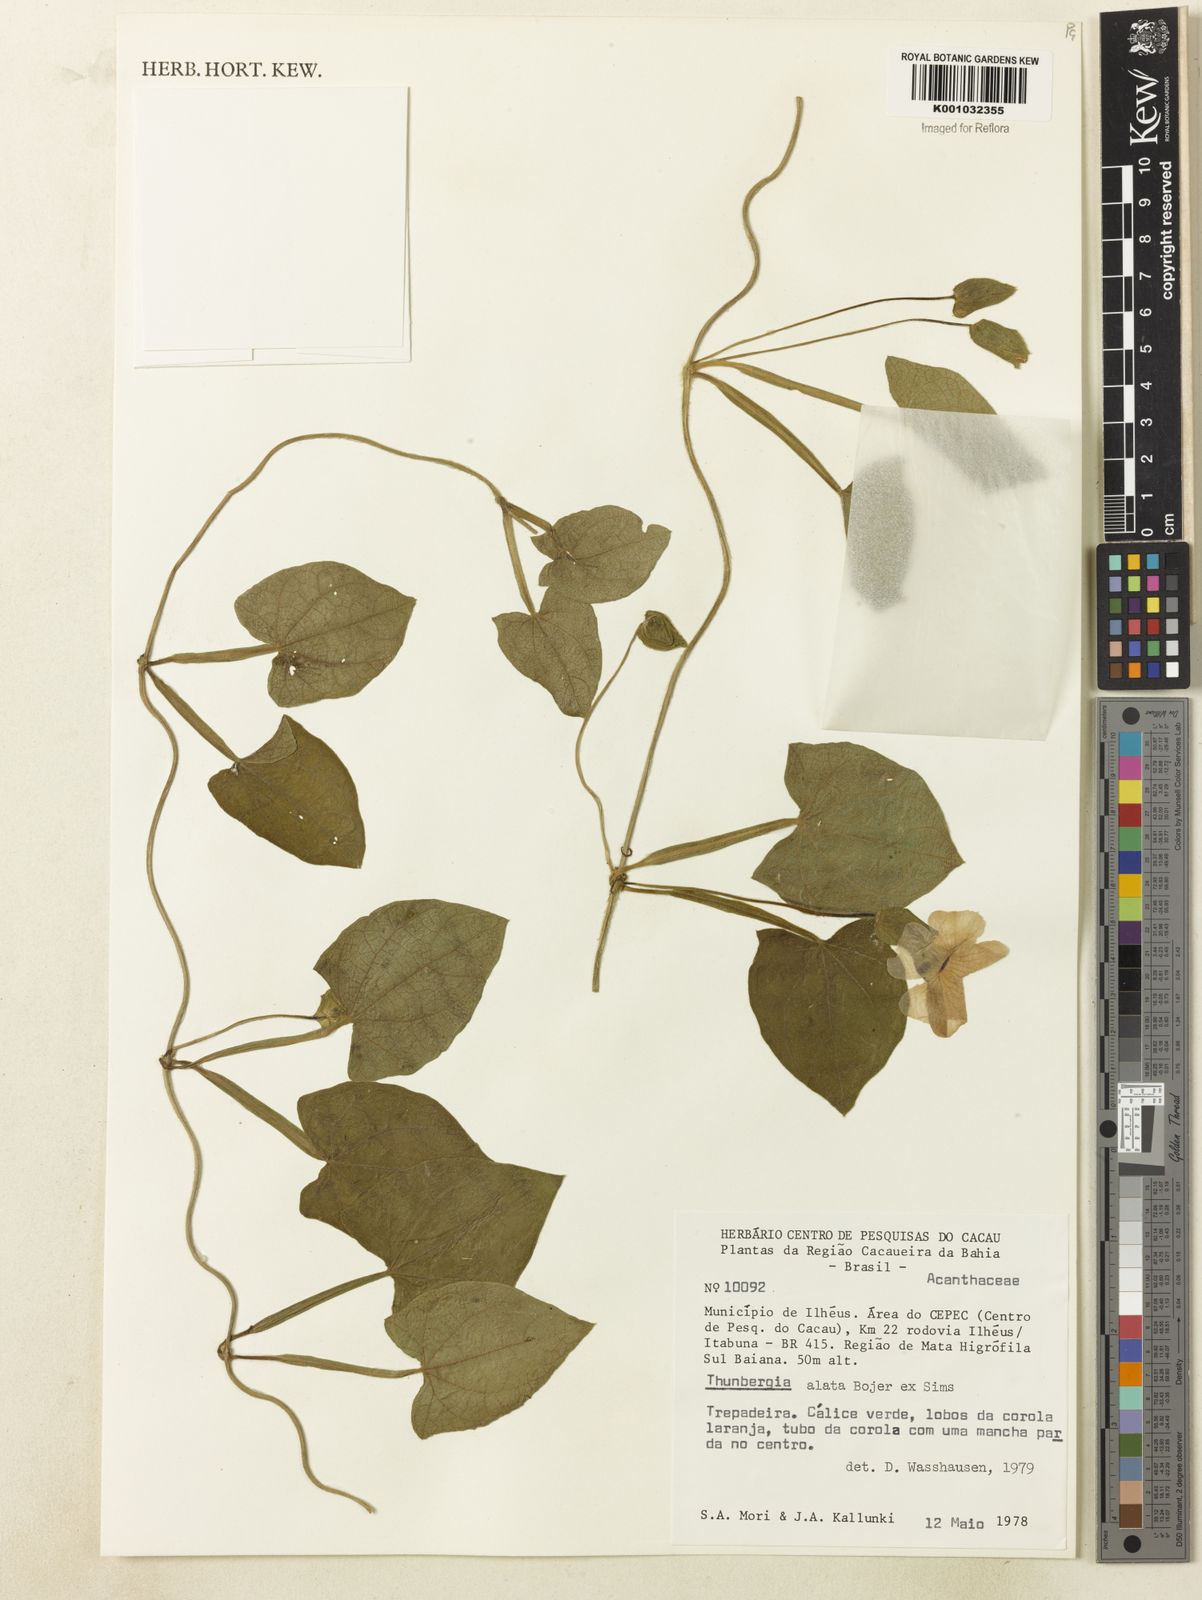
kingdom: Plantae
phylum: Tracheophyta
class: Magnoliopsida
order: Lamiales
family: Acanthaceae
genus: Thunbergia
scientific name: Thunbergia alata
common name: Blackeyed susan vine
